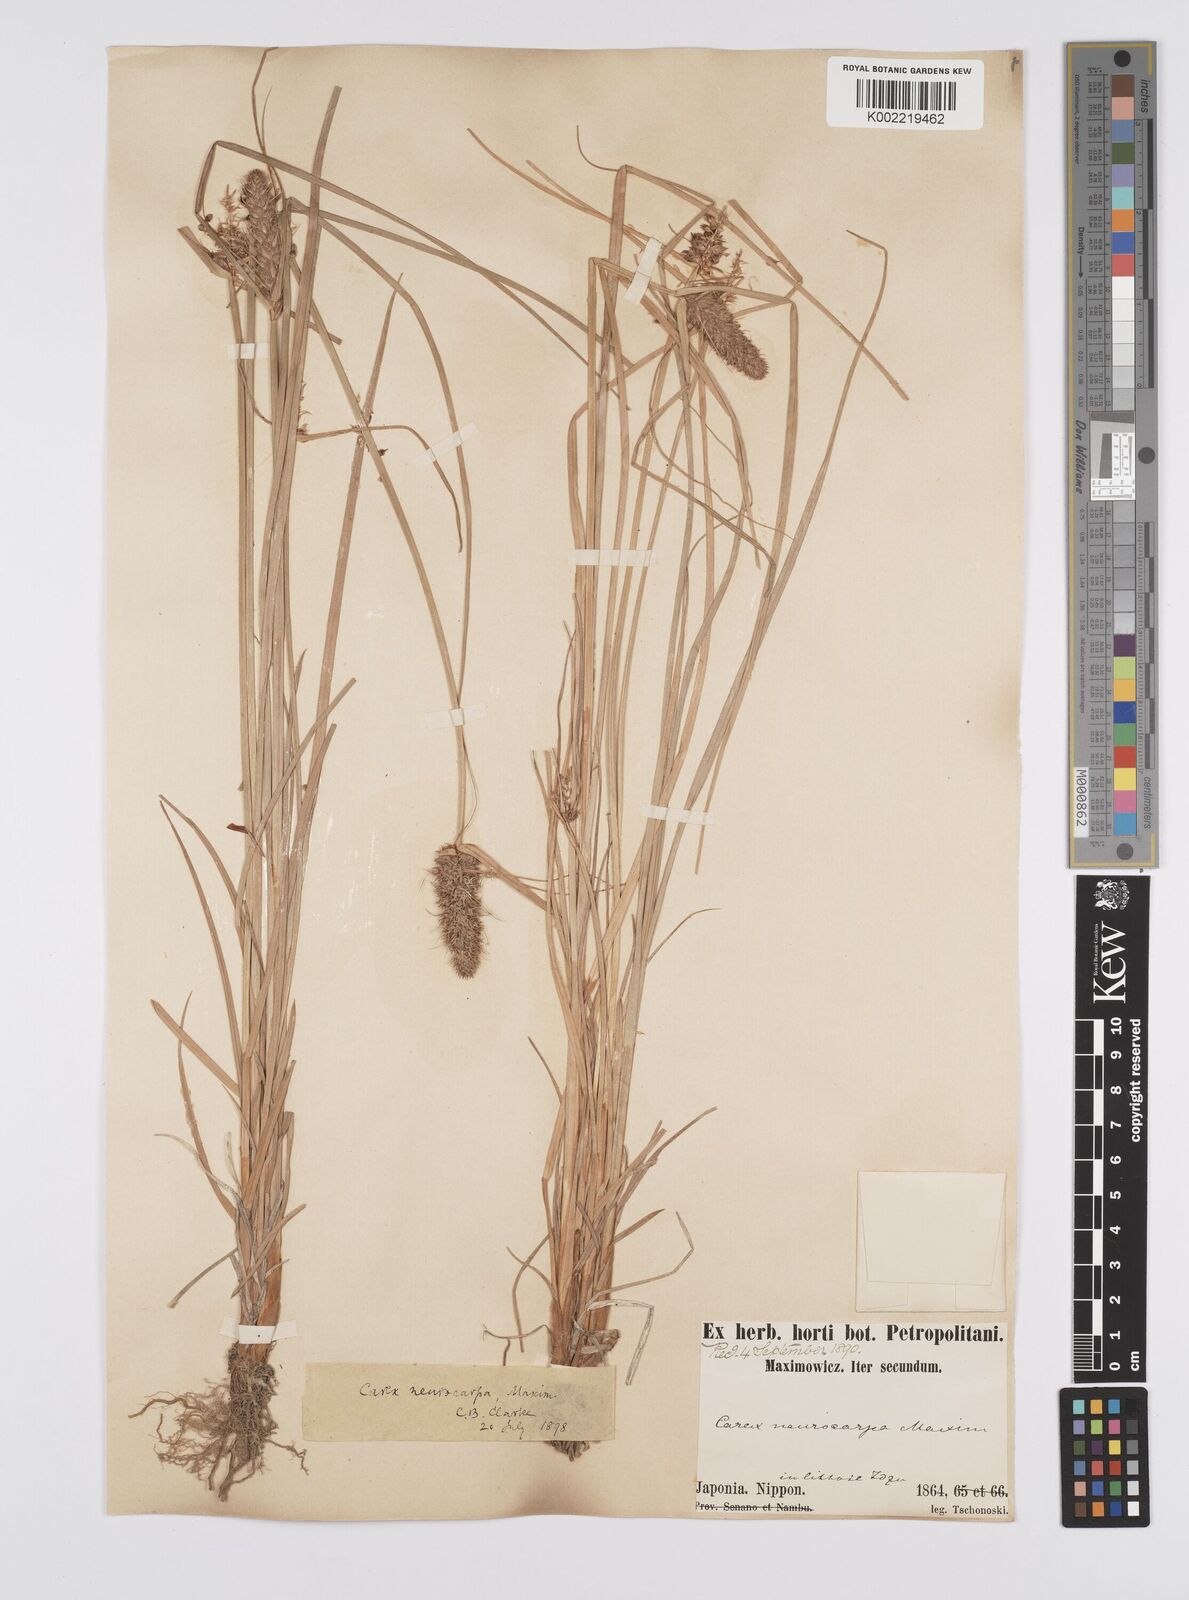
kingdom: Plantae
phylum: Tracheophyta
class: Liliopsida
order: Poales
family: Cyperaceae
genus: Carex
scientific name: Carex neurocarpa
